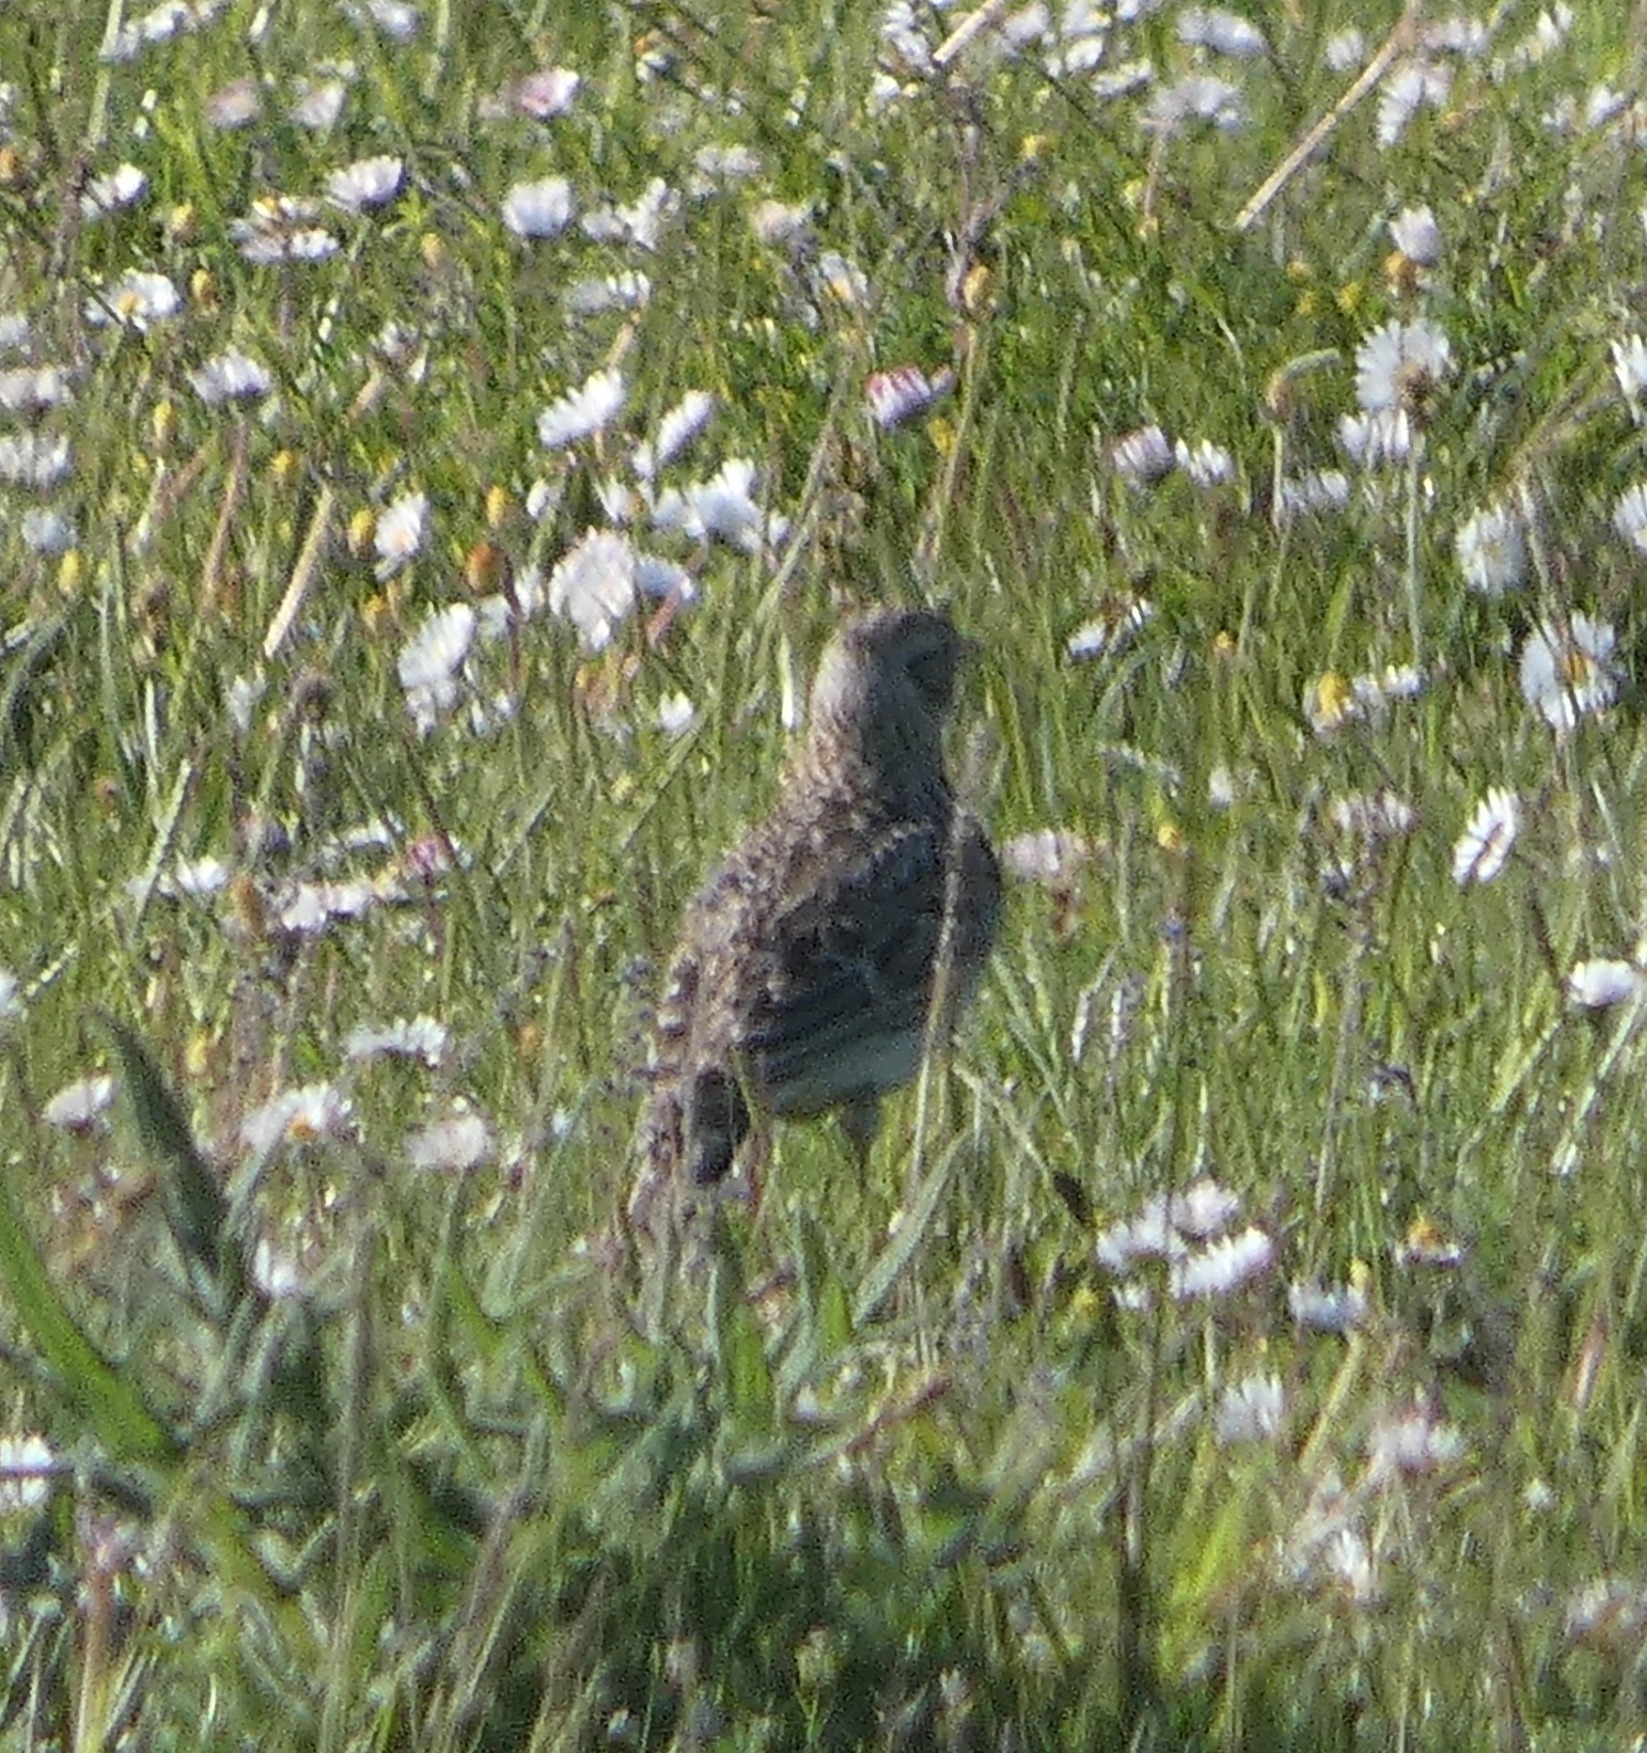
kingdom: Animalia
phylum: Chordata
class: Aves
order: Passeriformes
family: Alaudidae
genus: Alauda
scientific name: Alauda arvensis
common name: Sanglærke
